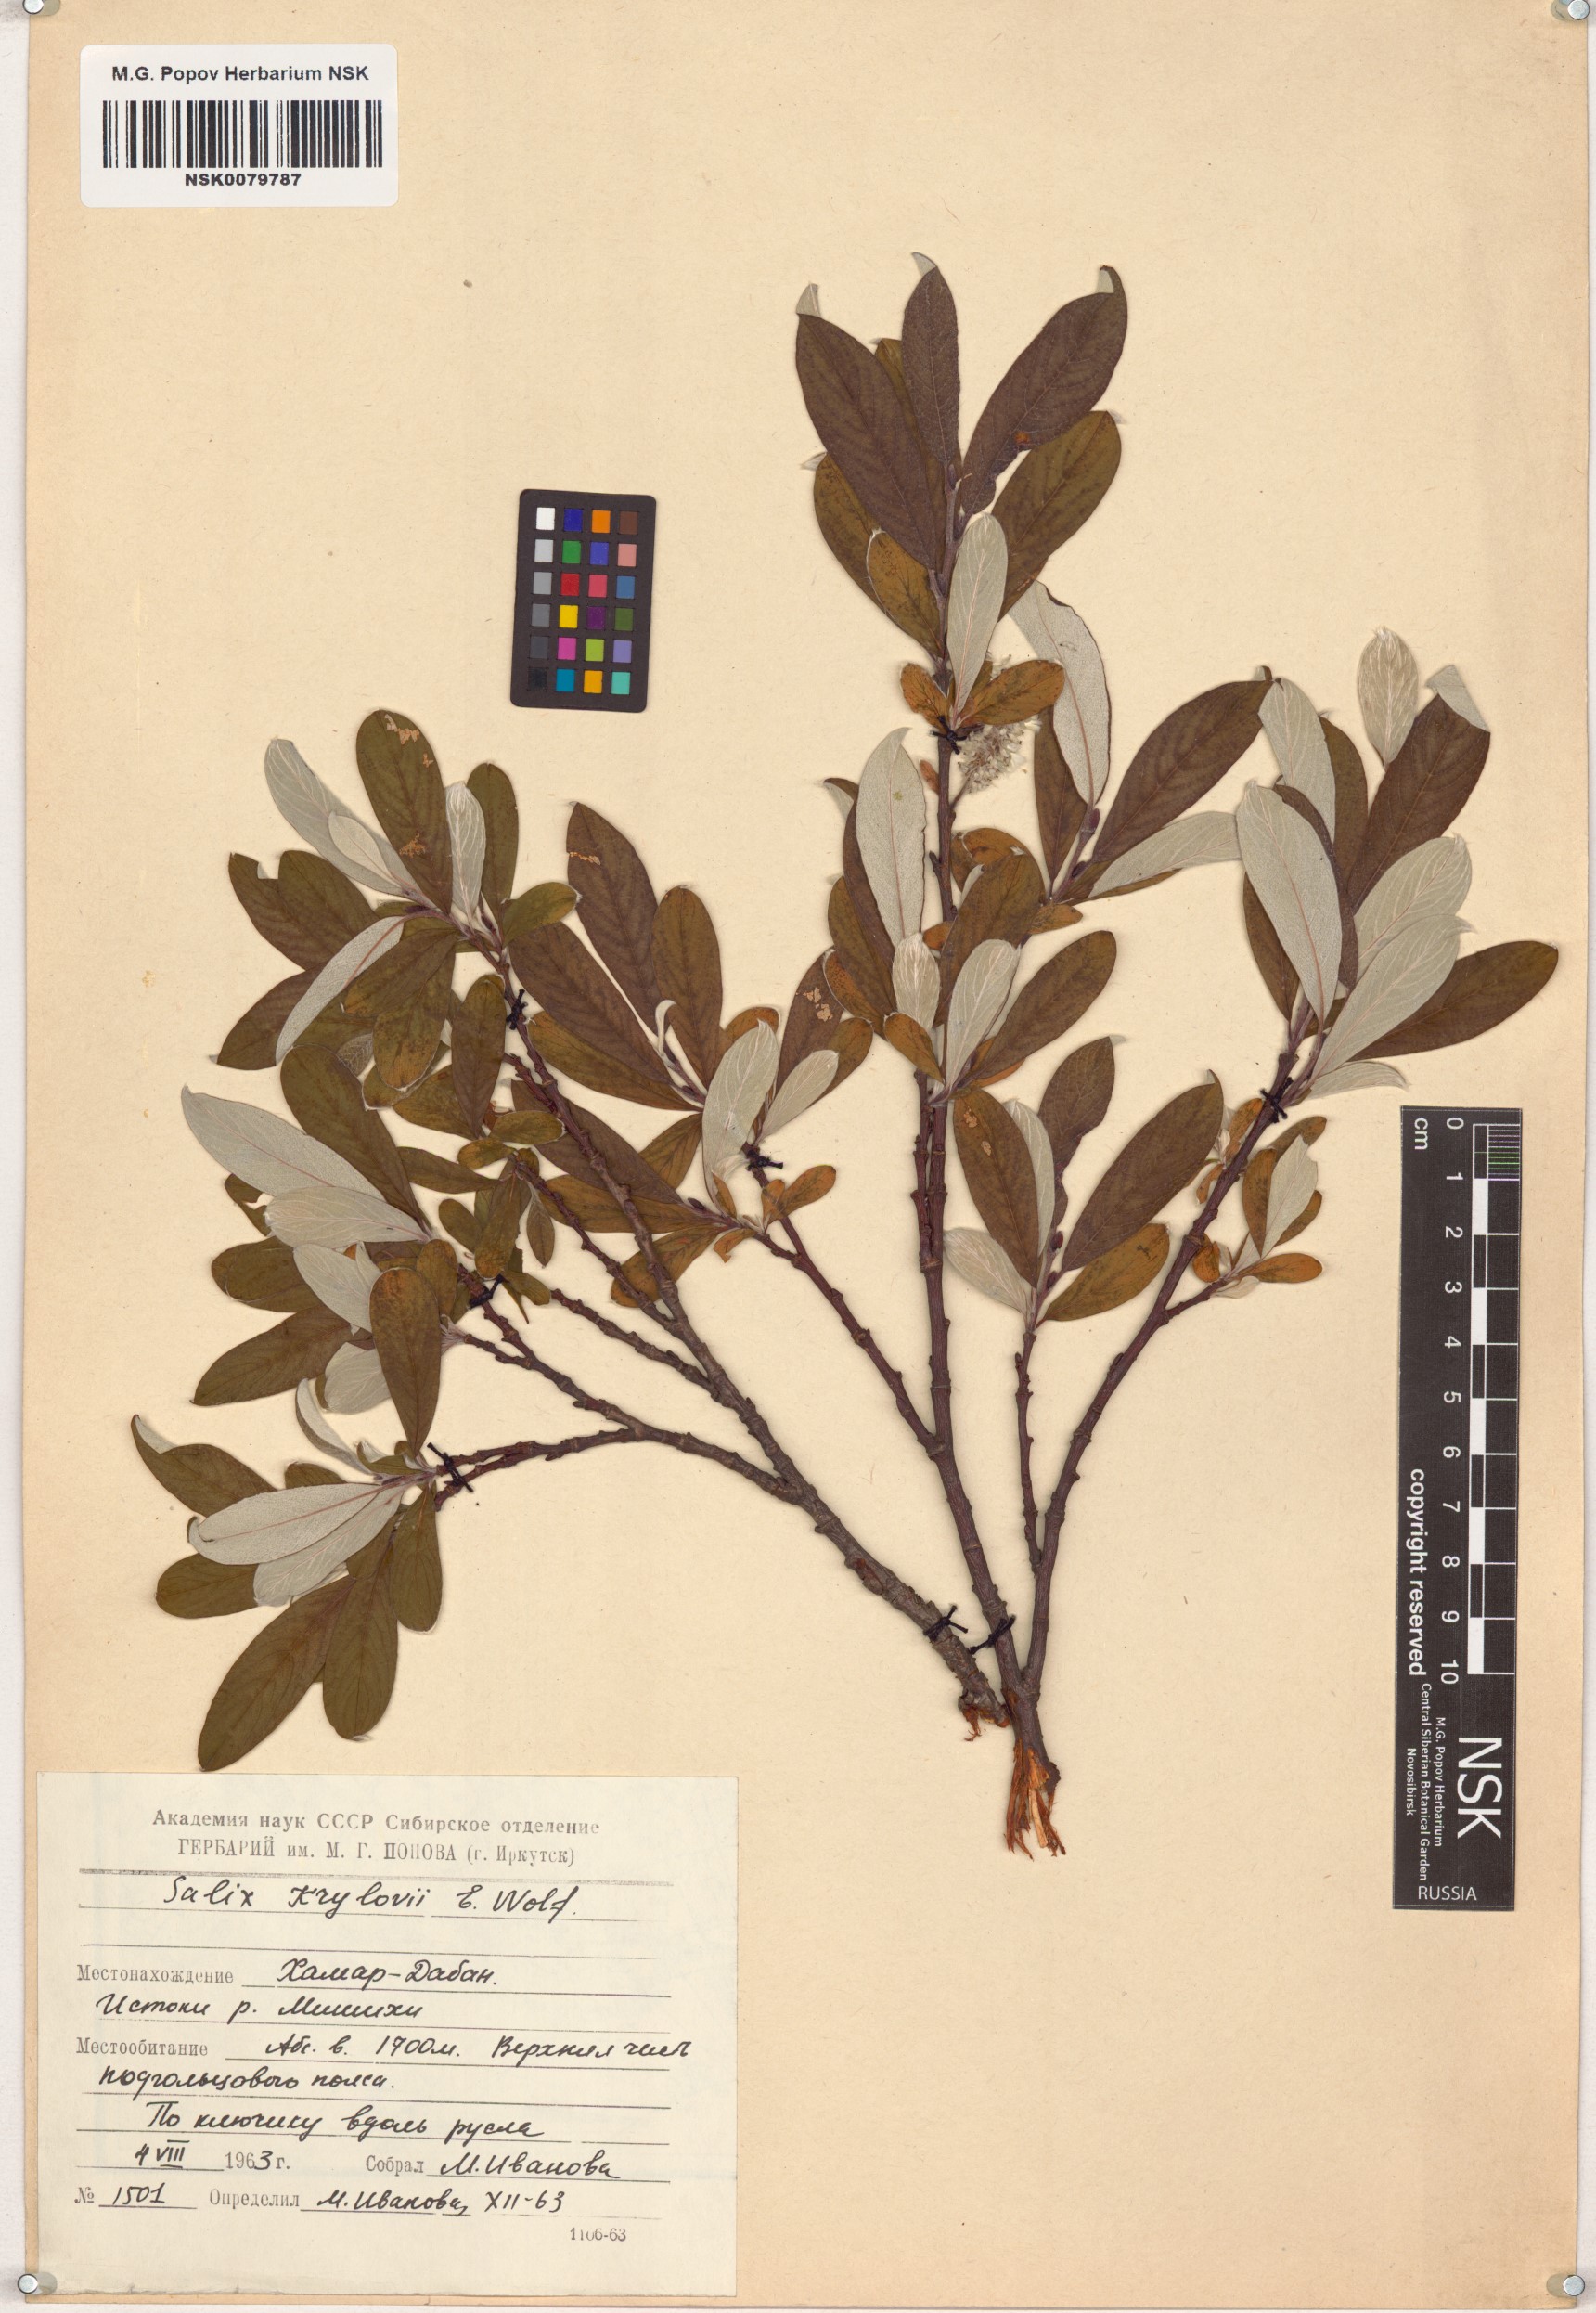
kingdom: Plantae
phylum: Tracheophyta
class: Magnoliopsida
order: Malpighiales
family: Salicaceae
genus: Salix
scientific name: Salix krylovii
